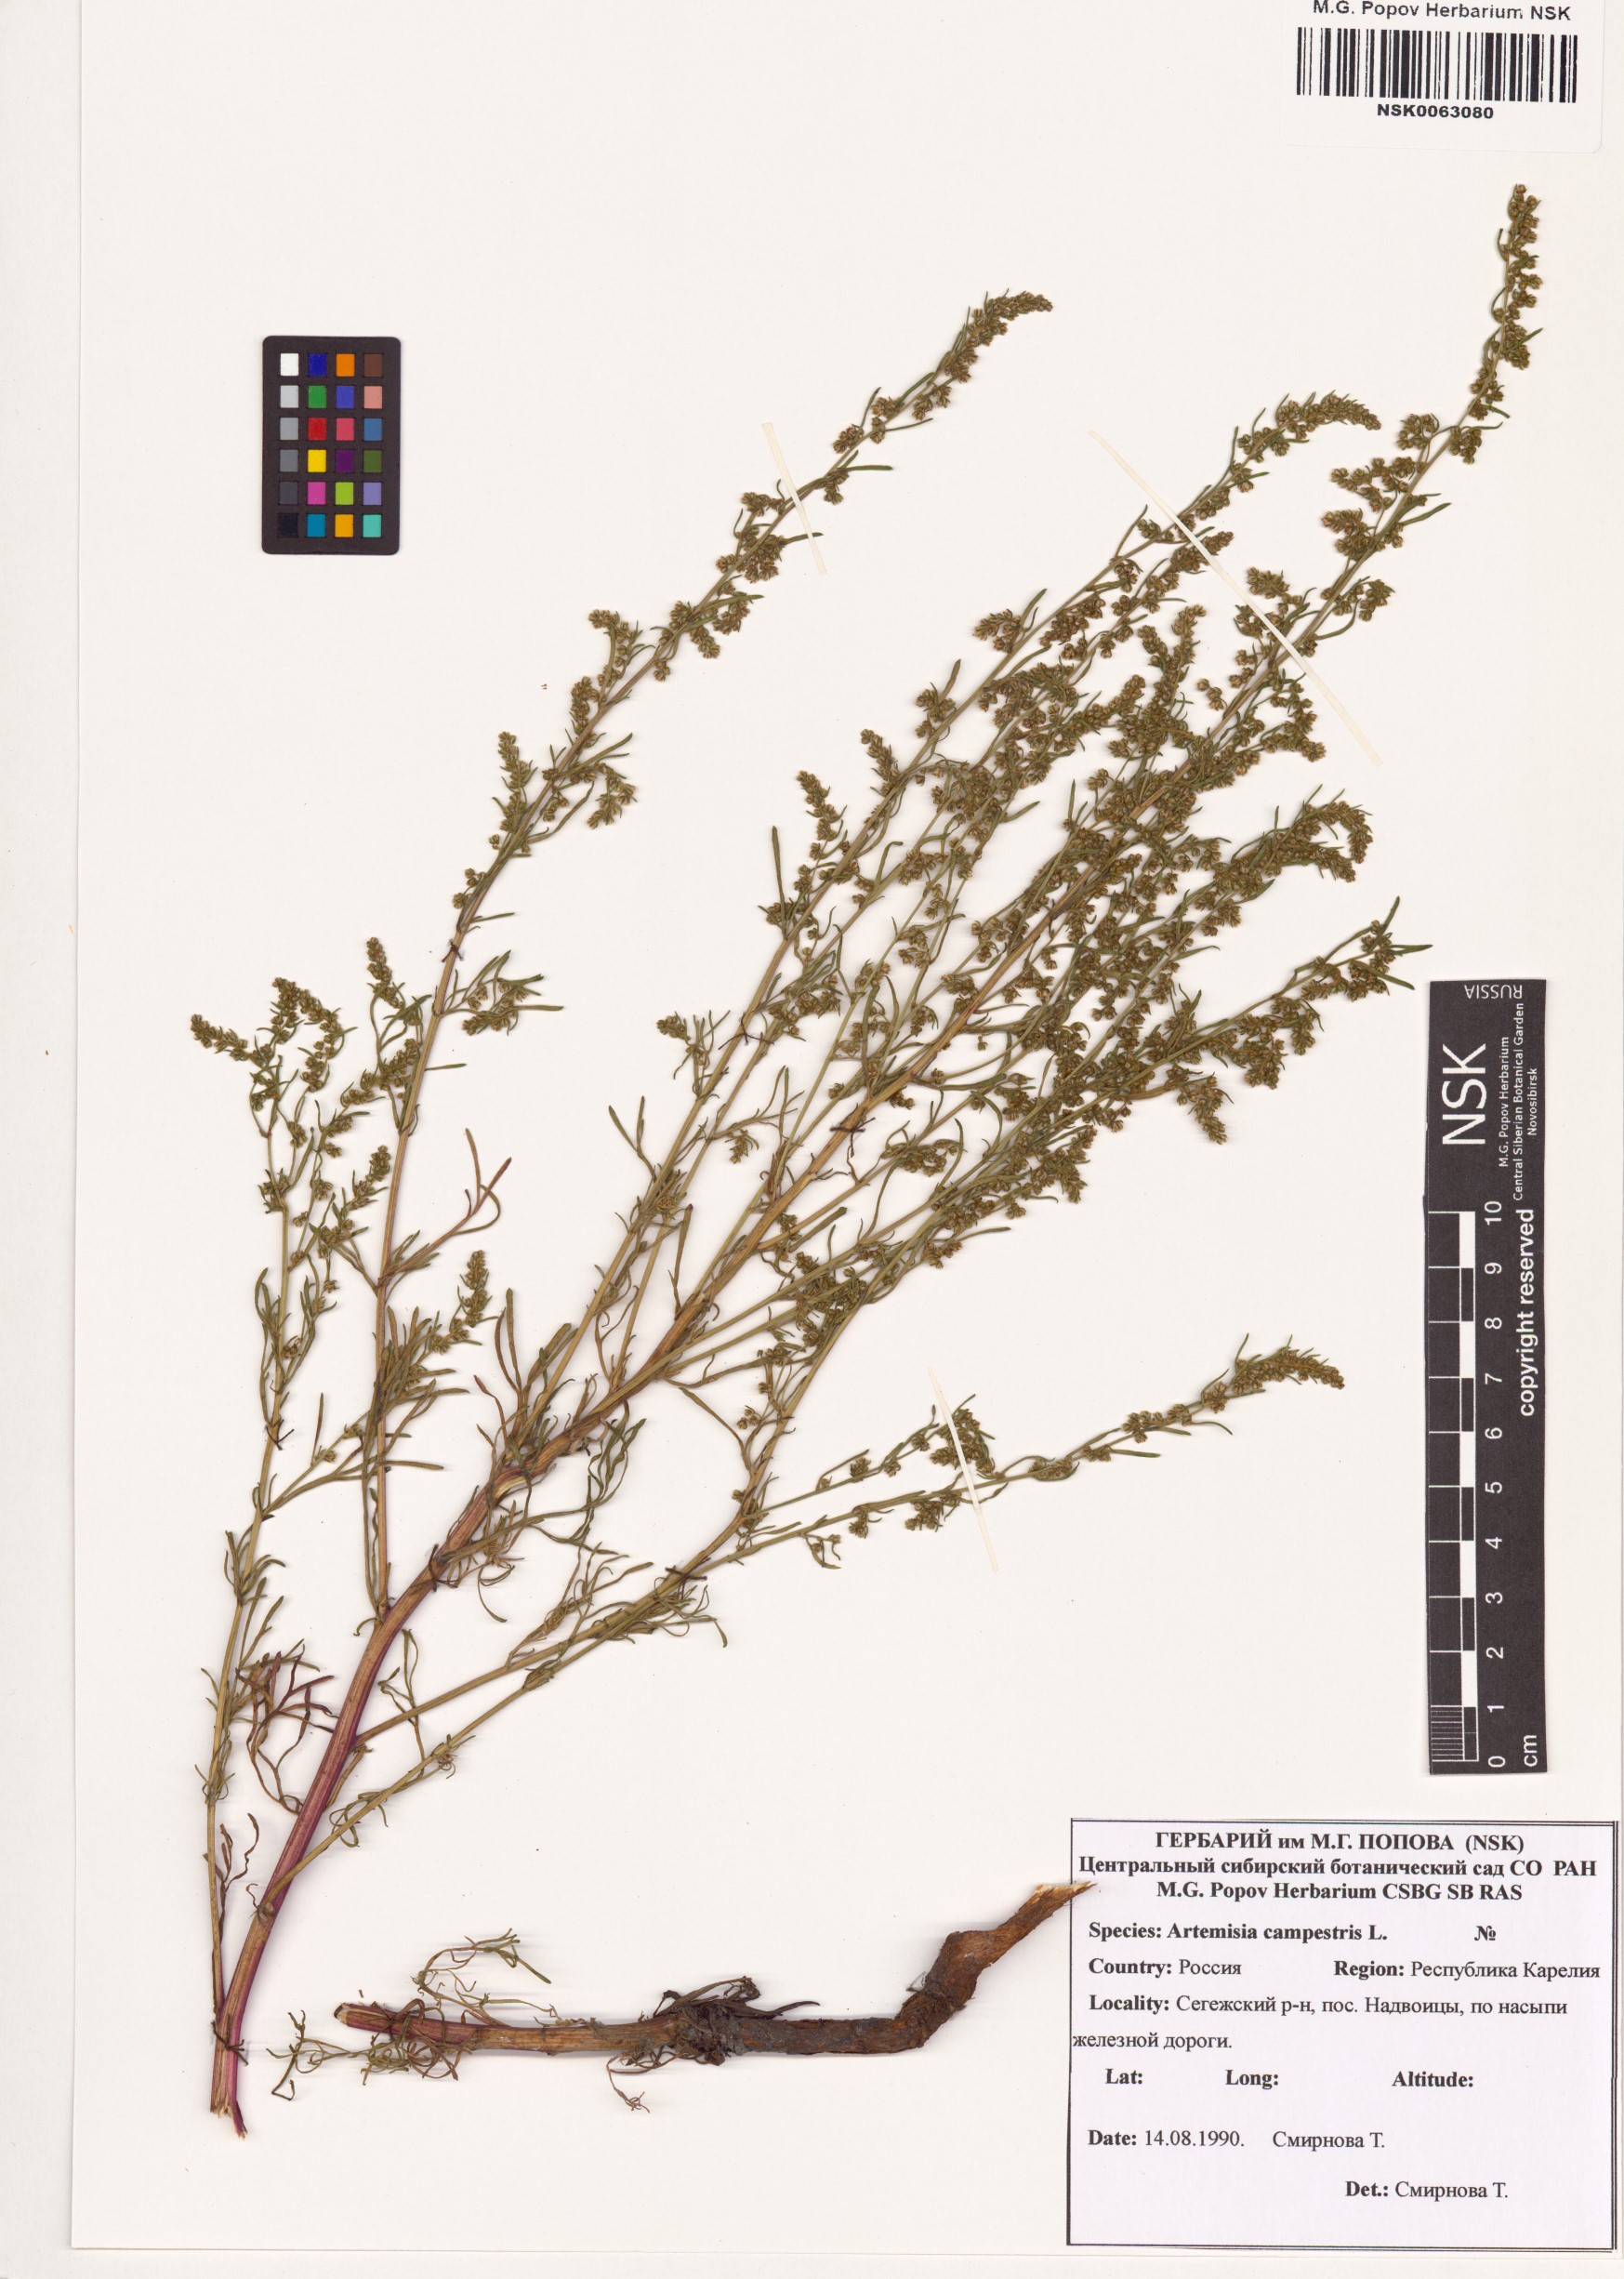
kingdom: Plantae
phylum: Tracheophyta
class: Magnoliopsida
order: Asterales
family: Asteraceae
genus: Artemisia
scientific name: Artemisia campestris
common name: Field wormwood
